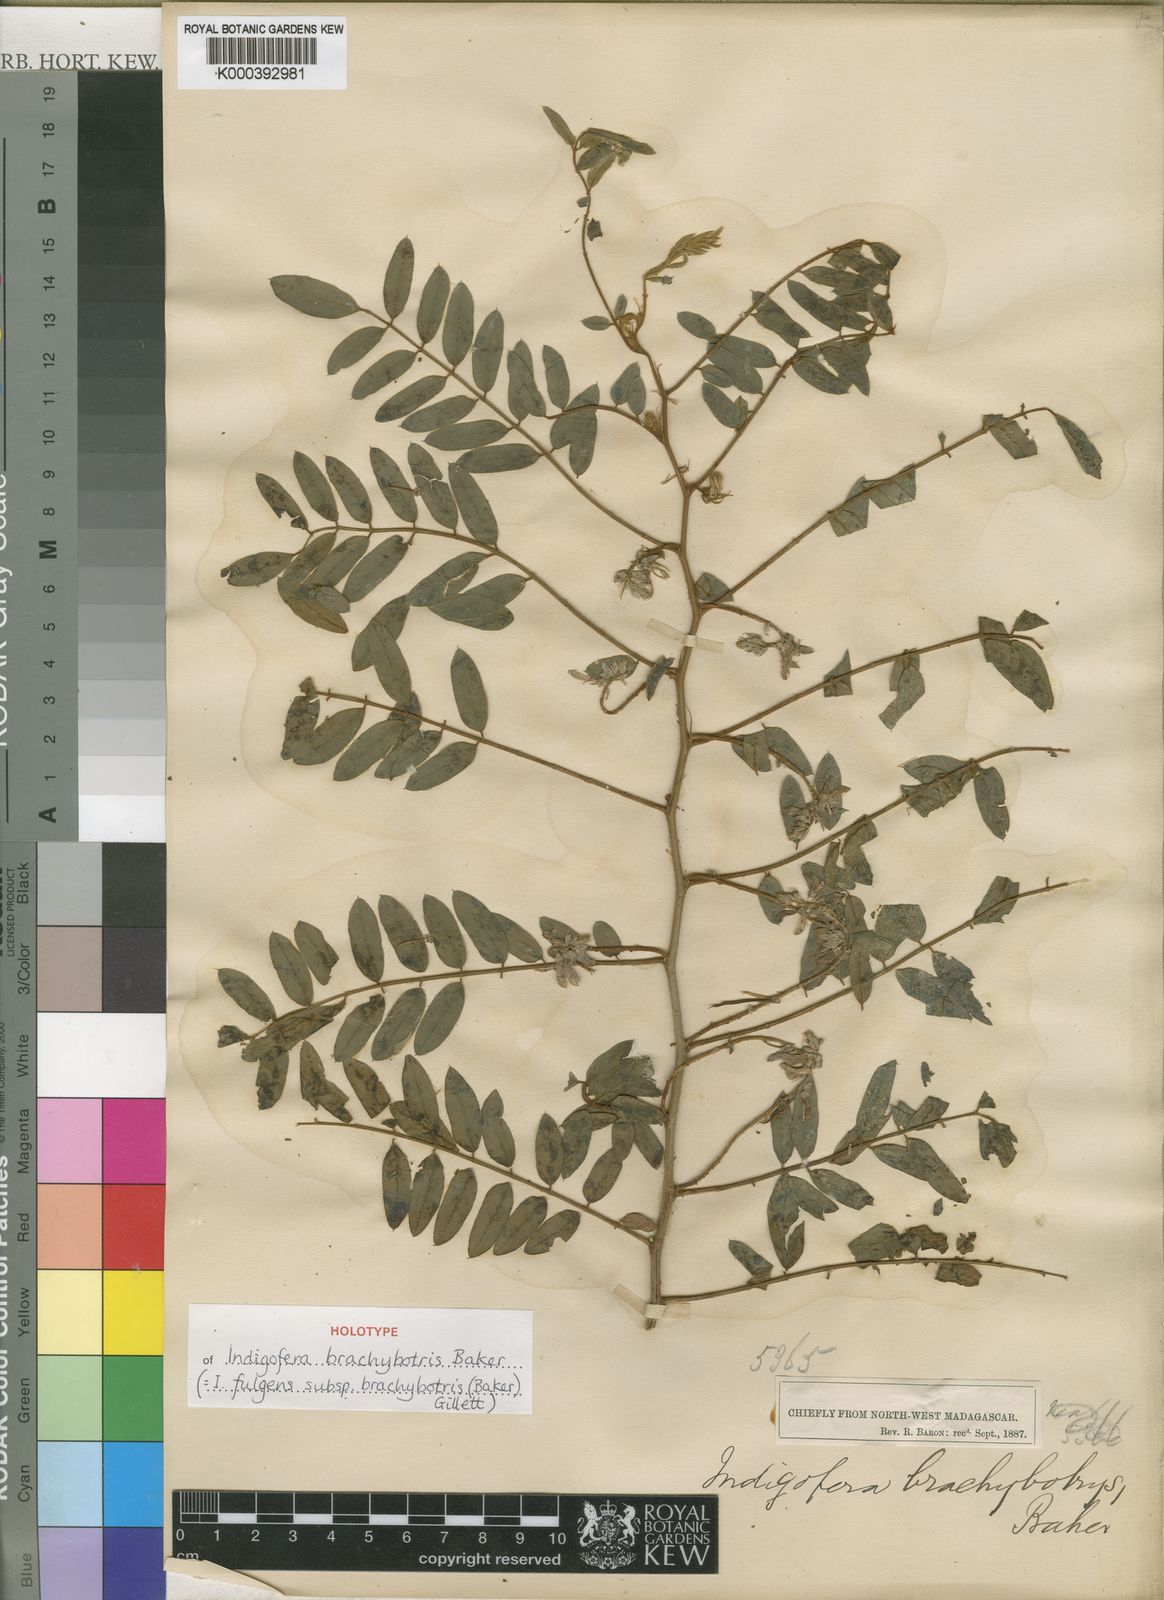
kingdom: Plantae
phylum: Tracheophyta
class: Magnoliopsida
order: Fabales
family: Fabaceae
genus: Indigofera
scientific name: Indigofera fulgens
